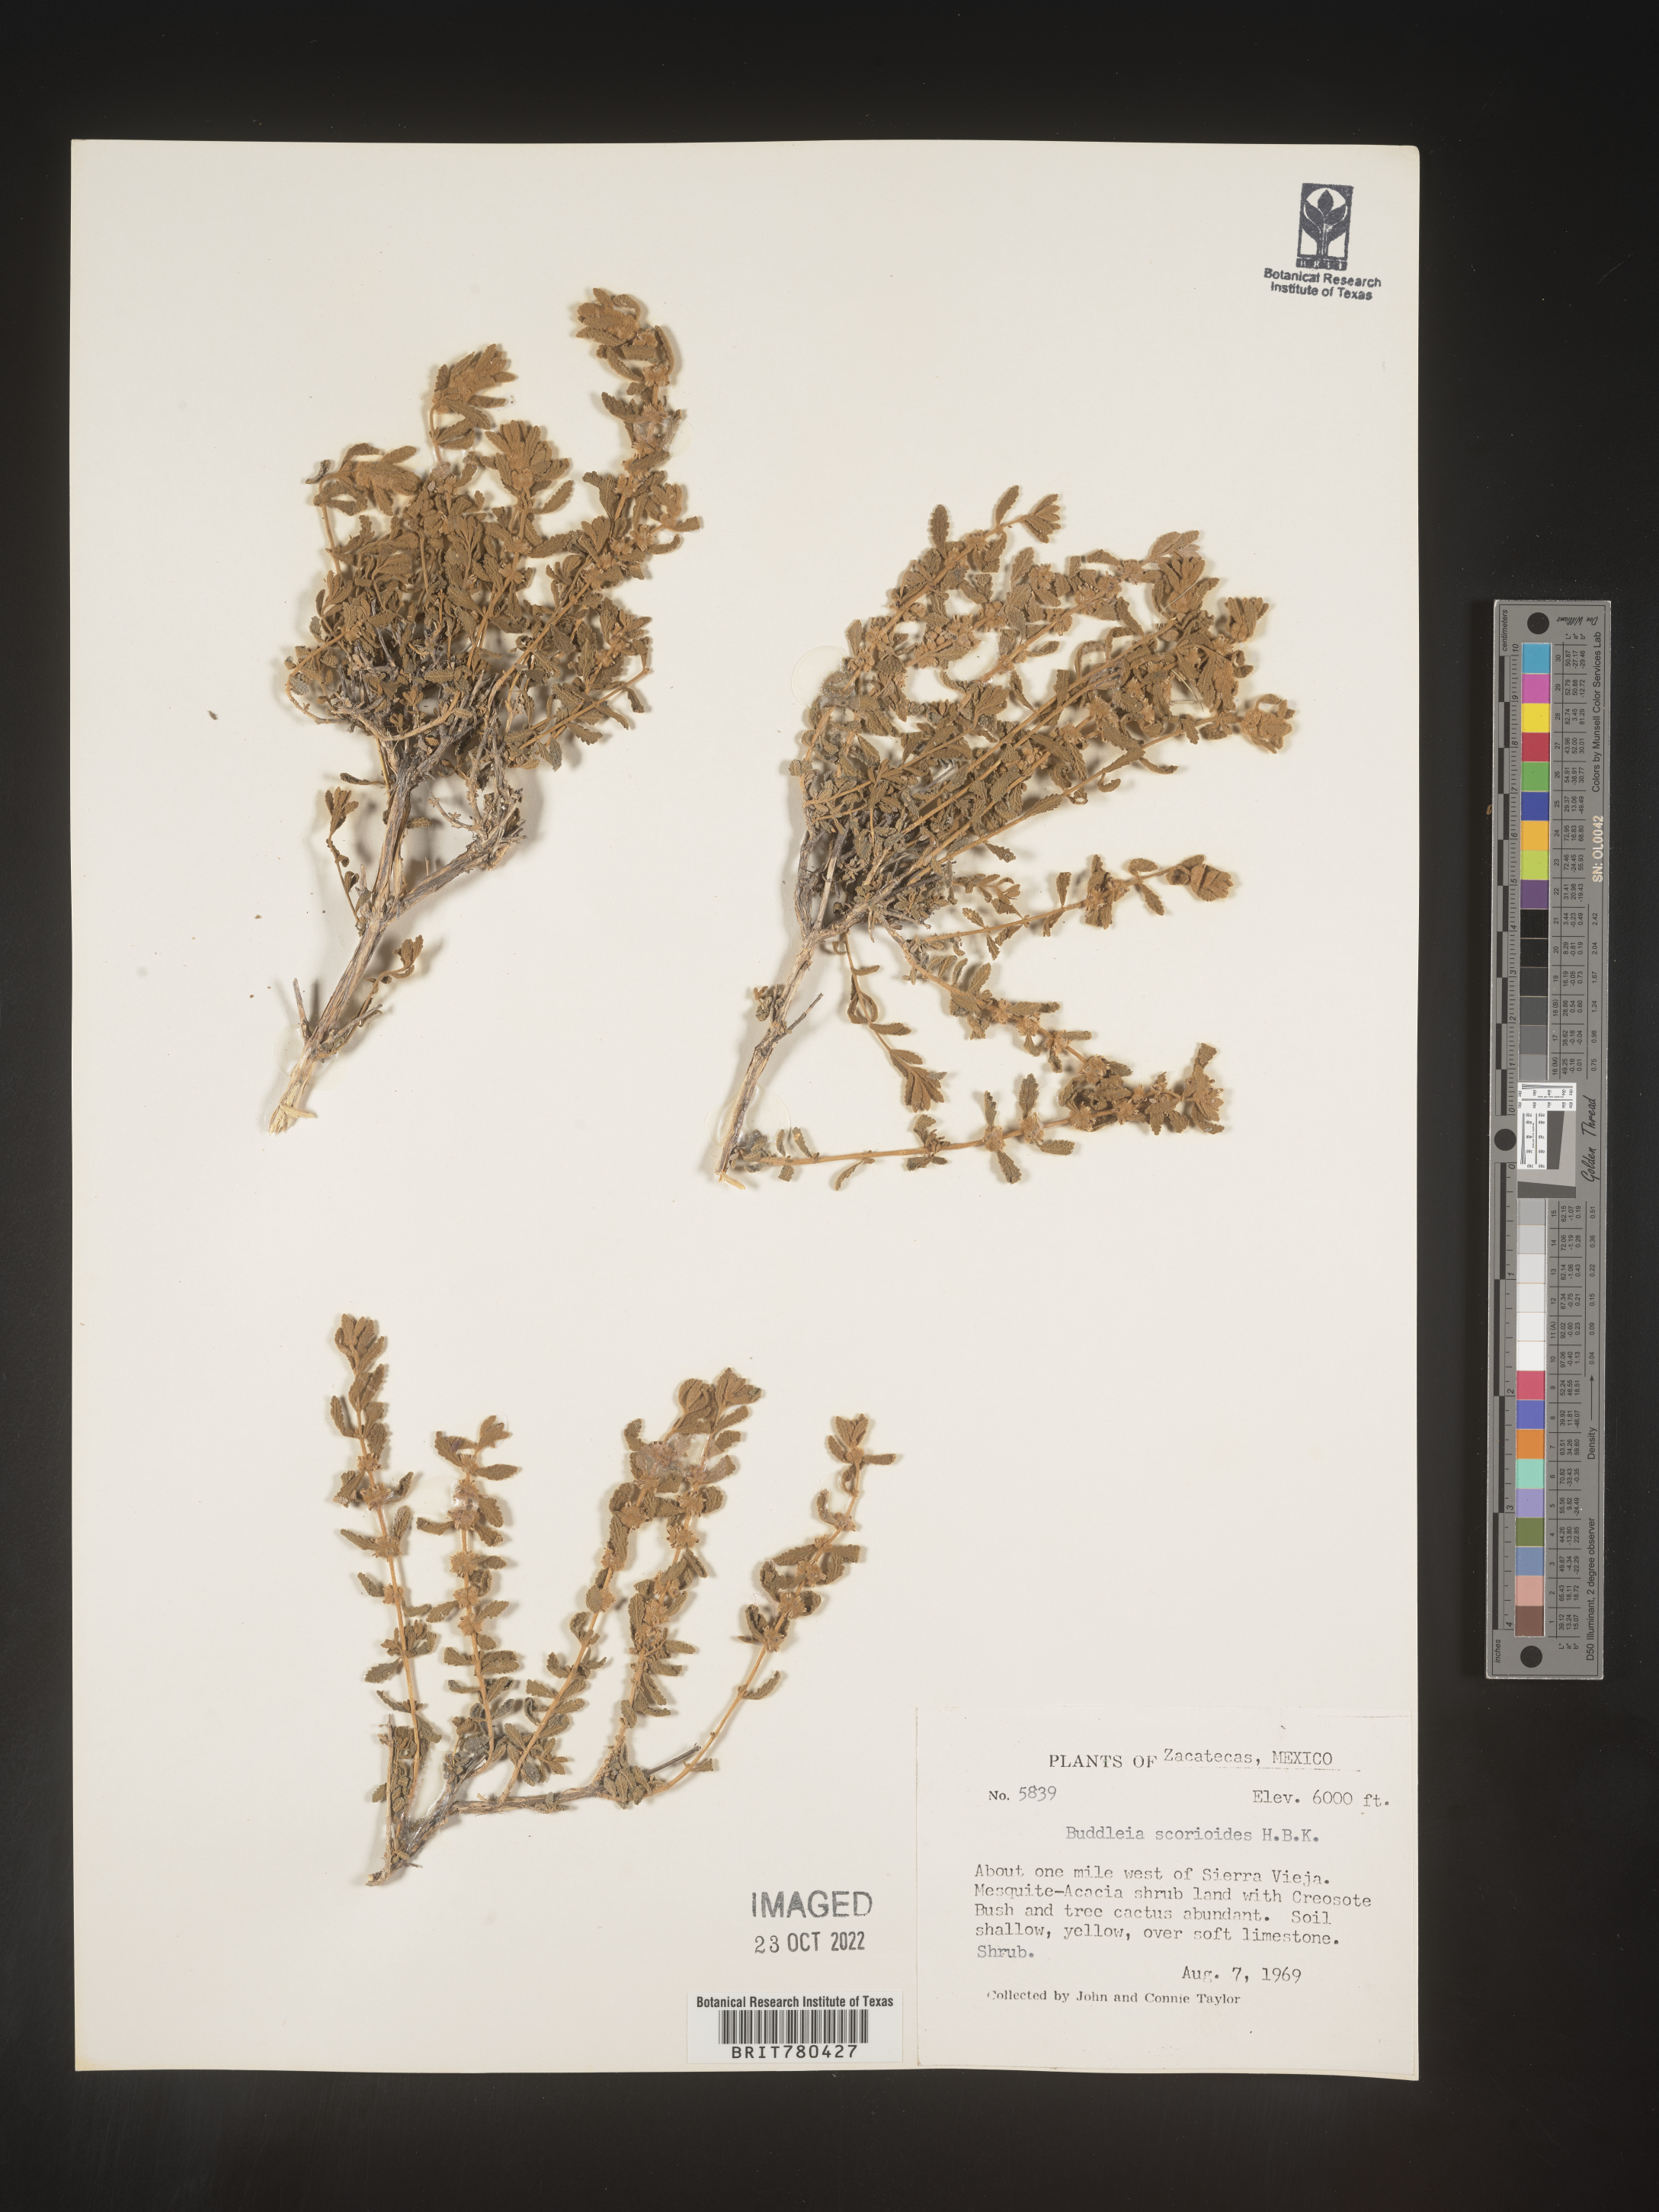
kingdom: Plantae
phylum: Tracheophyta
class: Magnoliopsida
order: Lamiales
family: Scrophulariaceae
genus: Buddleja
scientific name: Buddleja
